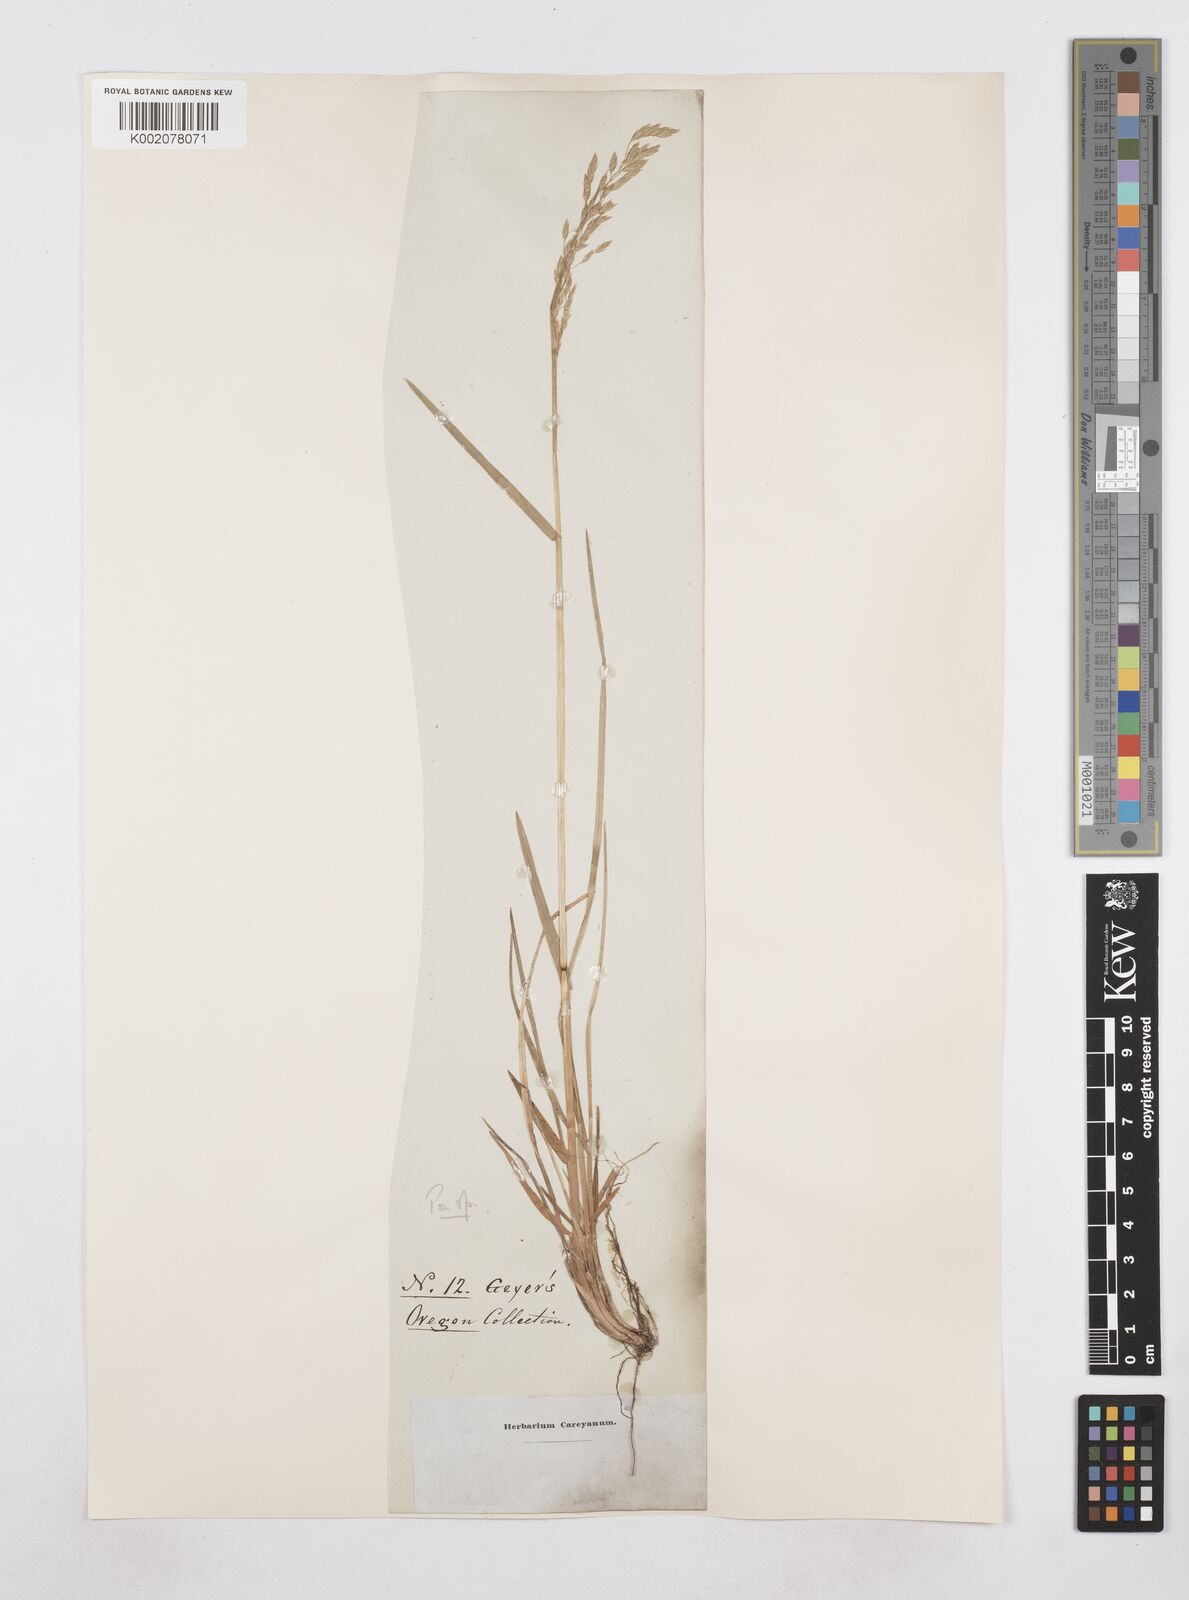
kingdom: Plantae
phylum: Tracheophyta
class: Liliopsida
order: Poales
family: Poaceae
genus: Poa
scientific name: Poa
